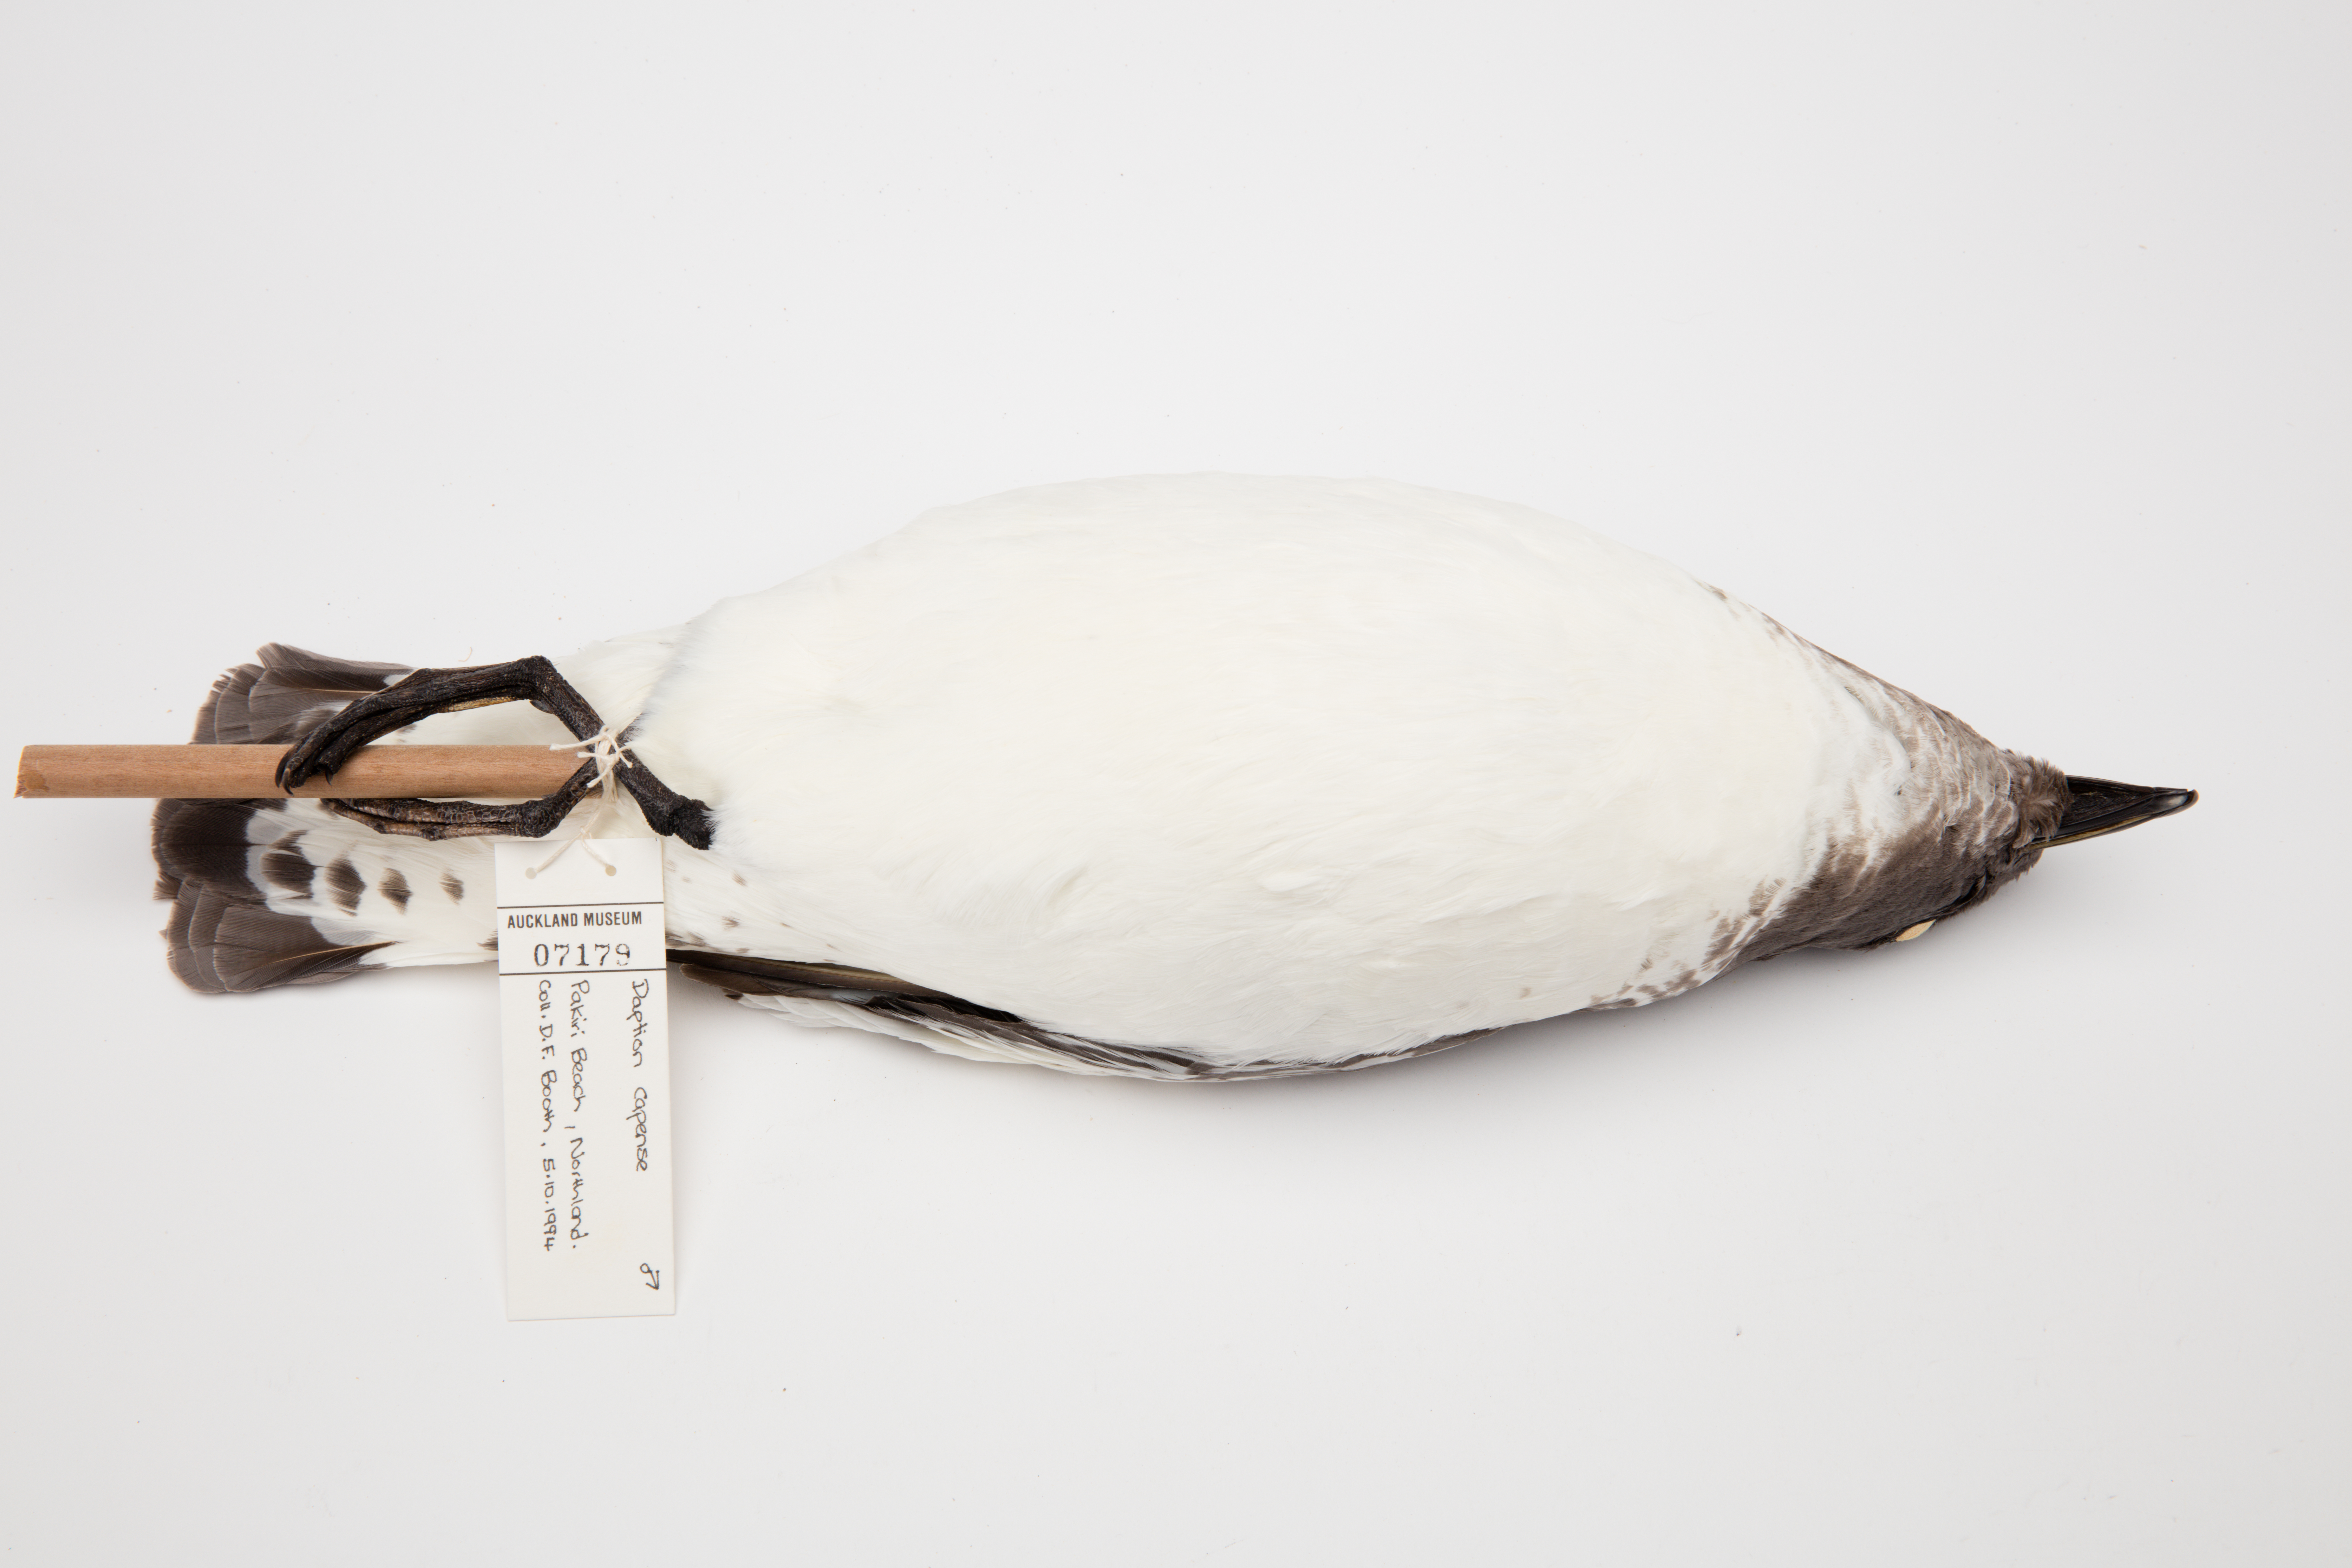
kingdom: Animalia
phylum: Chordata
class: Aves
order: Procellariiformes
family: Procellariidae
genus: Daption
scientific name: Daption capense
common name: Cape petrel
